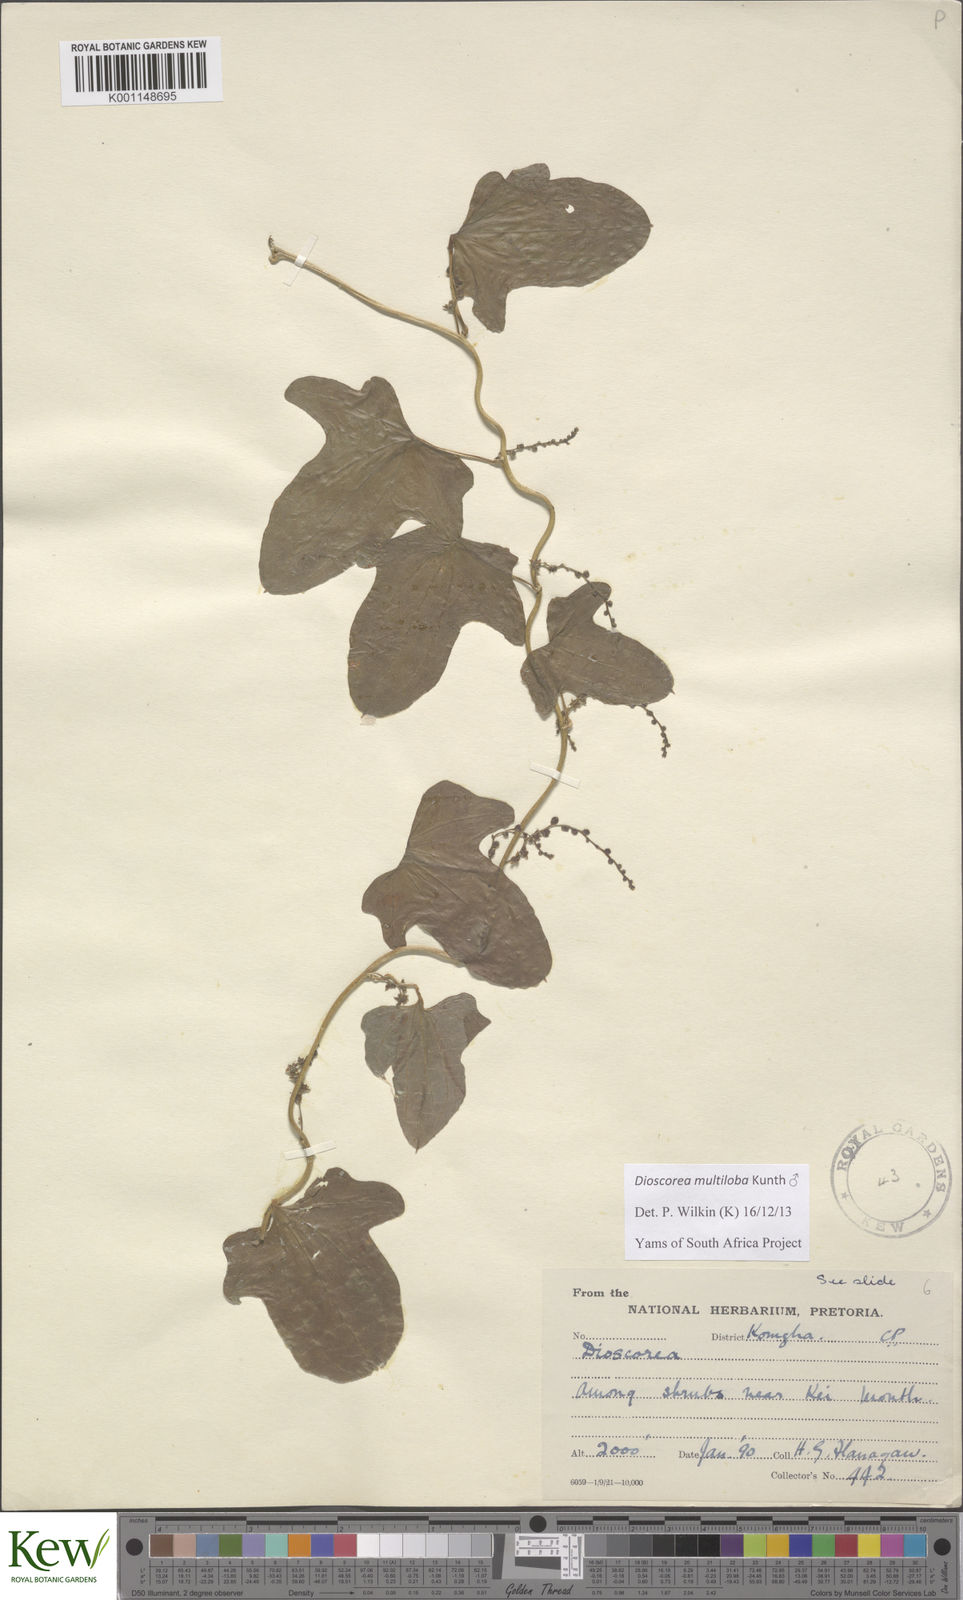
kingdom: Plantae
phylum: Tracheophyta
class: Liliopsida
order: Dioscoreales
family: Dioscoreaceae
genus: Dioscorea
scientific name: Dioscorea multiloba
